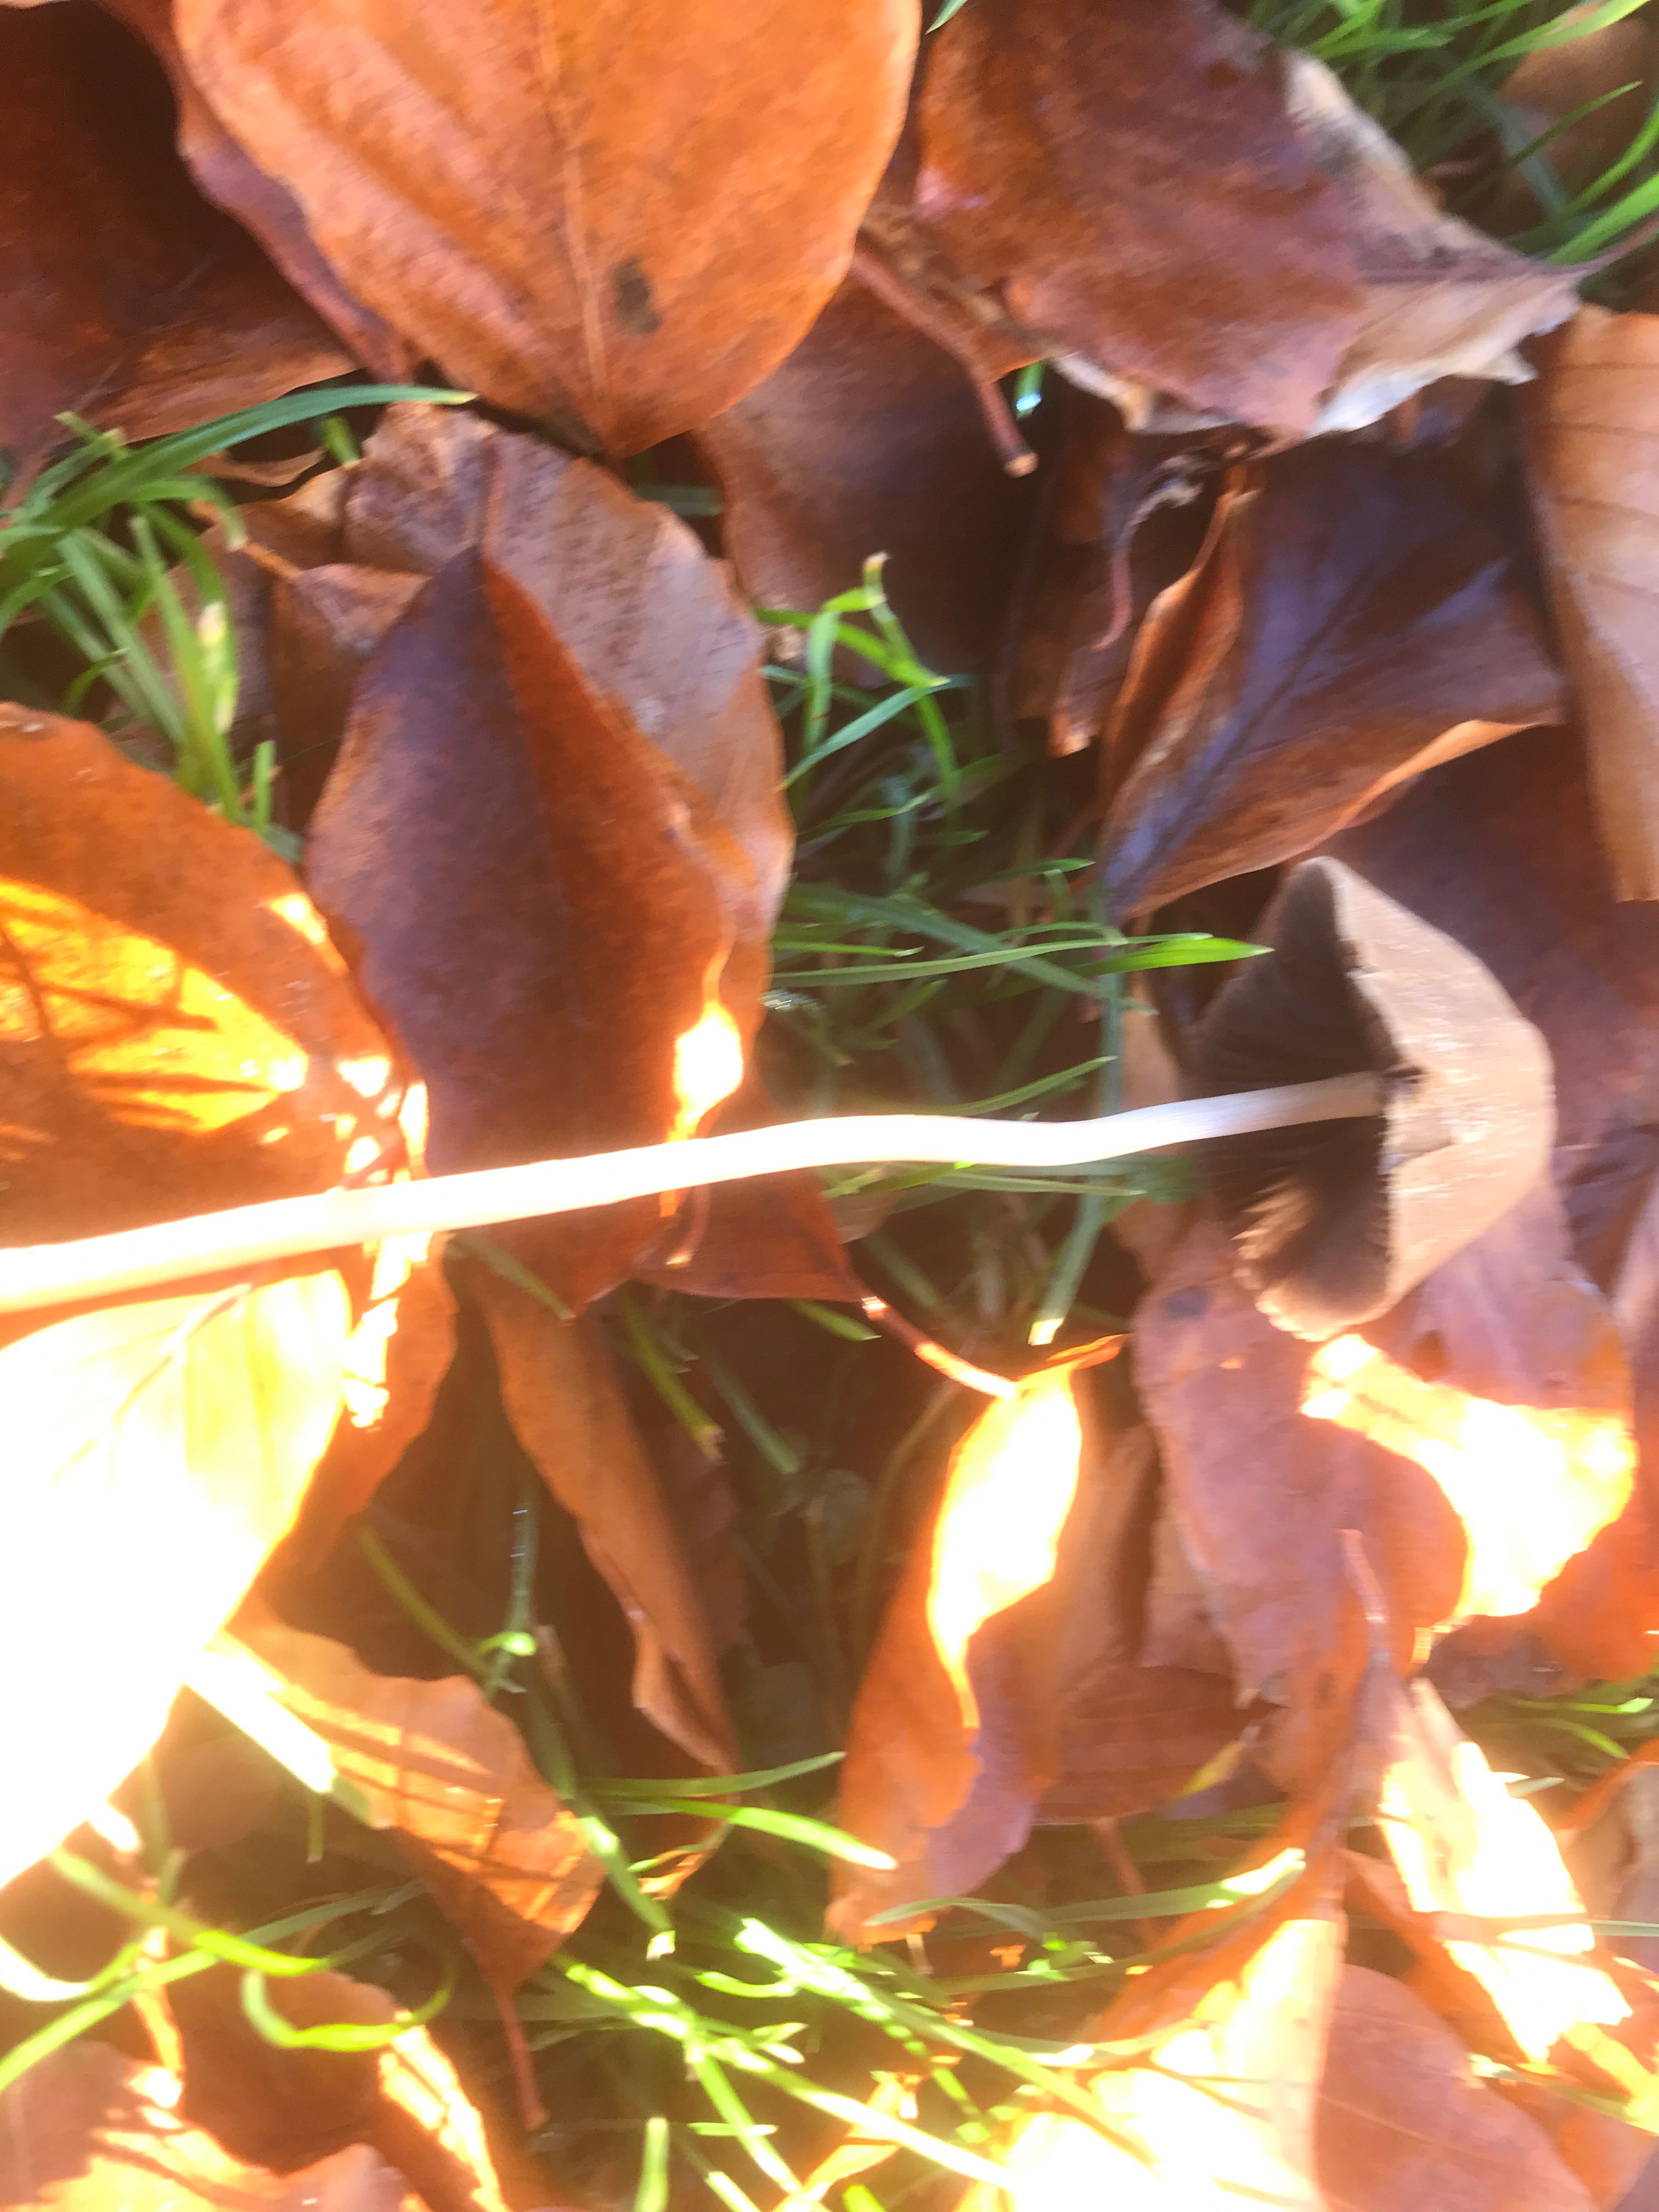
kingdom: Fungi
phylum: Basidiomycota
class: Agaricomycetes
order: Agaricales
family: Psathyrellaceae
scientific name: Psathyrellaceae
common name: mørkhatfamilien
